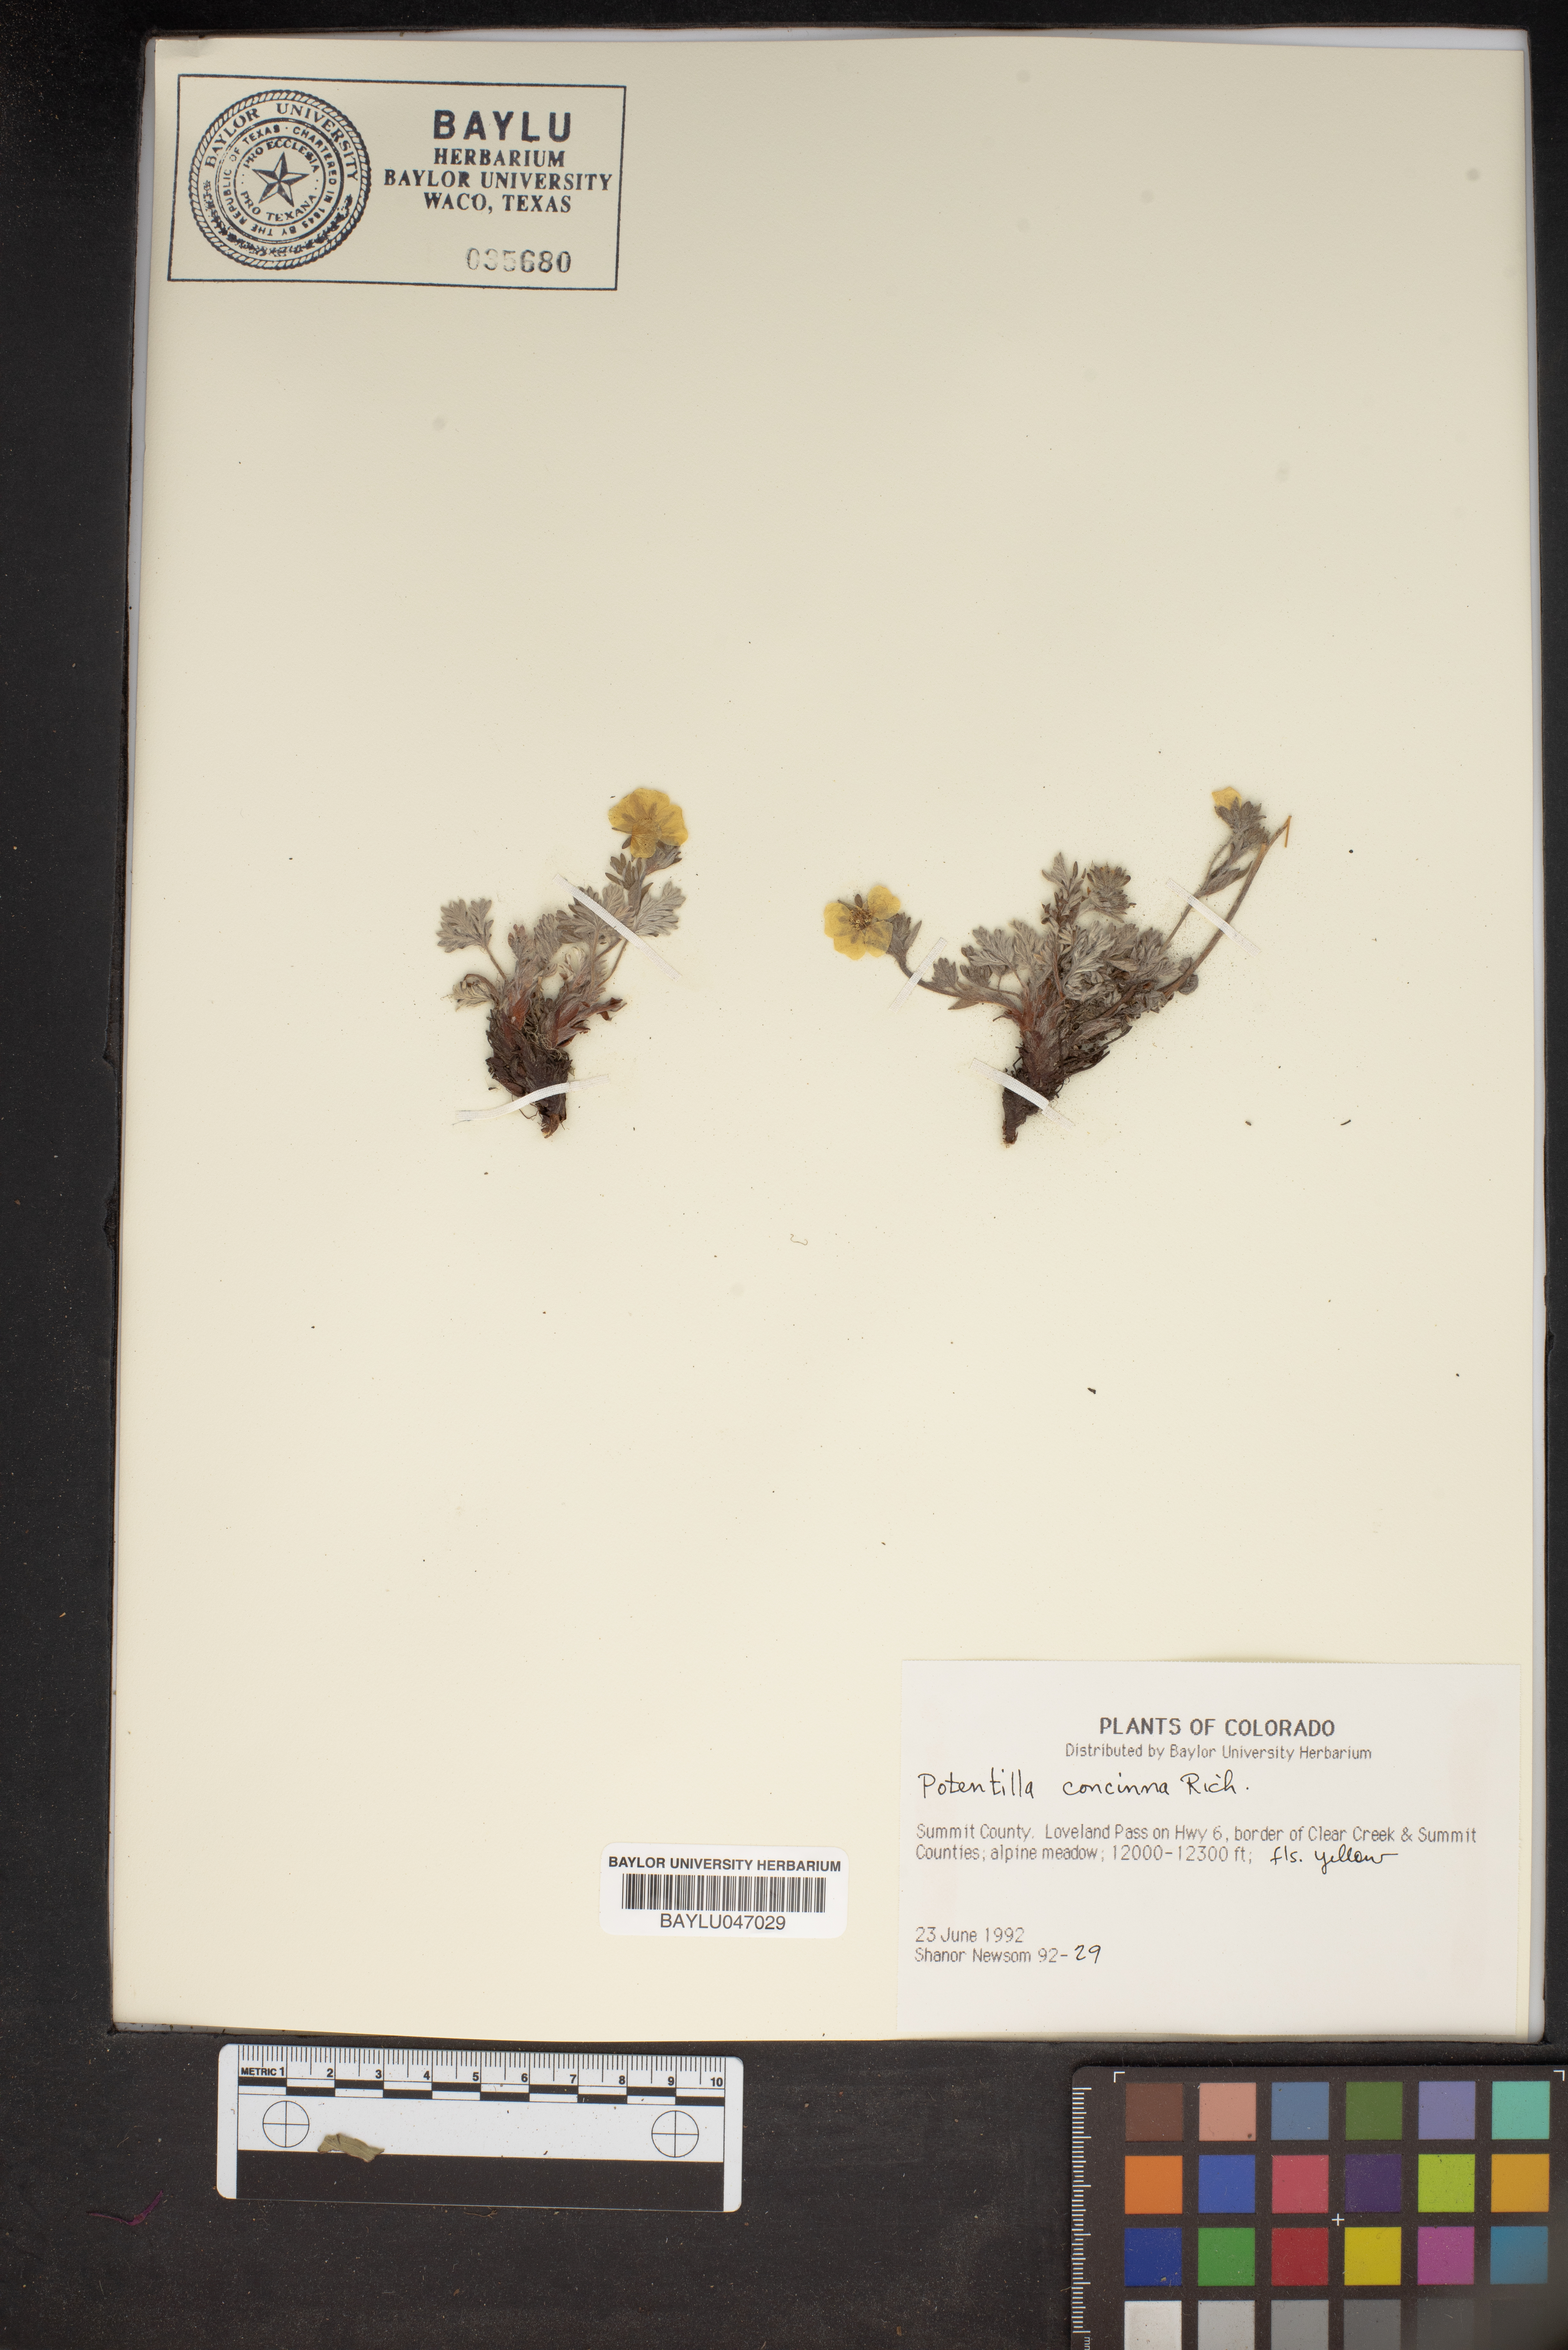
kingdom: Plantae
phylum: Tracheophyta
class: Magnoliopsida
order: Rosales
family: Rosaceae
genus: Potentilla
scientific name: Potentilla concinna
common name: Early cinquefoil
